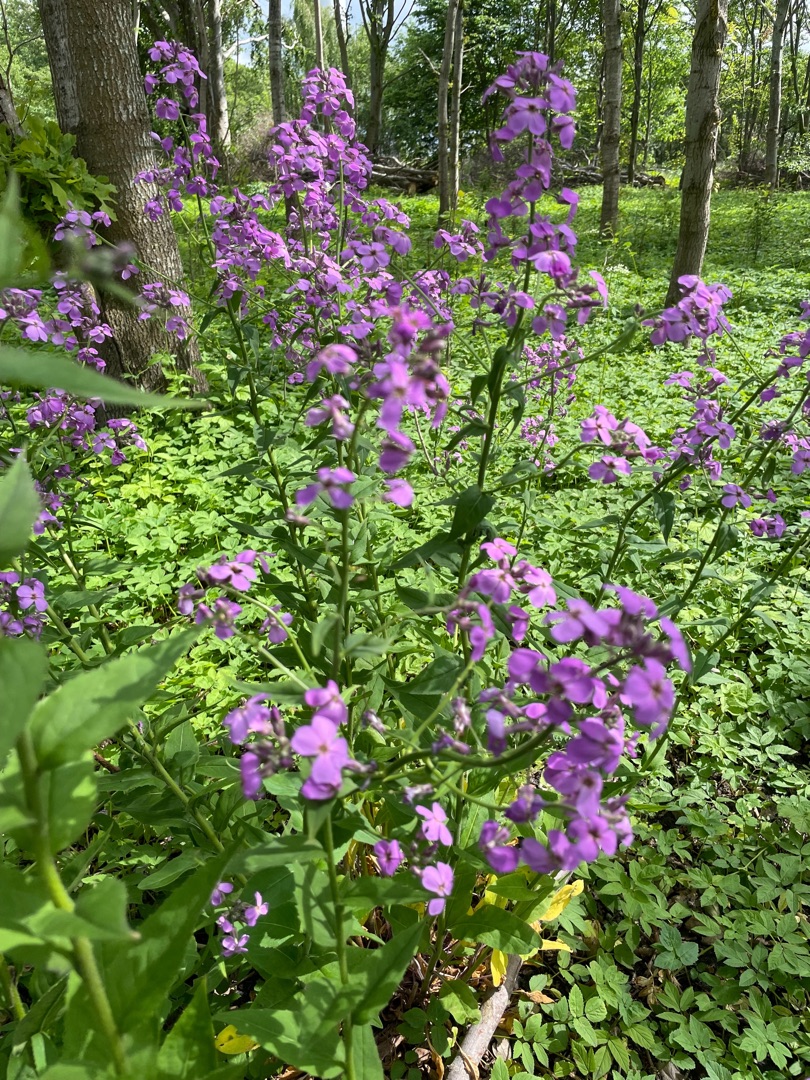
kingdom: Plantae
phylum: Tracheophyta
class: Magnoliopsida
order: Brassicales
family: Brassicaceae
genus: Hesperis
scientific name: Hesperis matronalis
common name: Aftenstjerne
